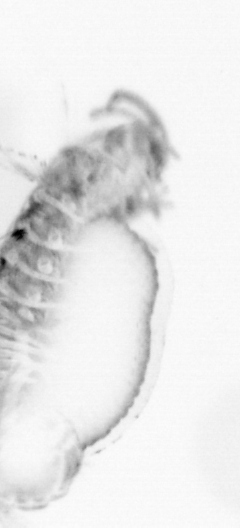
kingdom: Animalia
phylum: Annelida
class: Polychaeta
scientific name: Polychaeta
